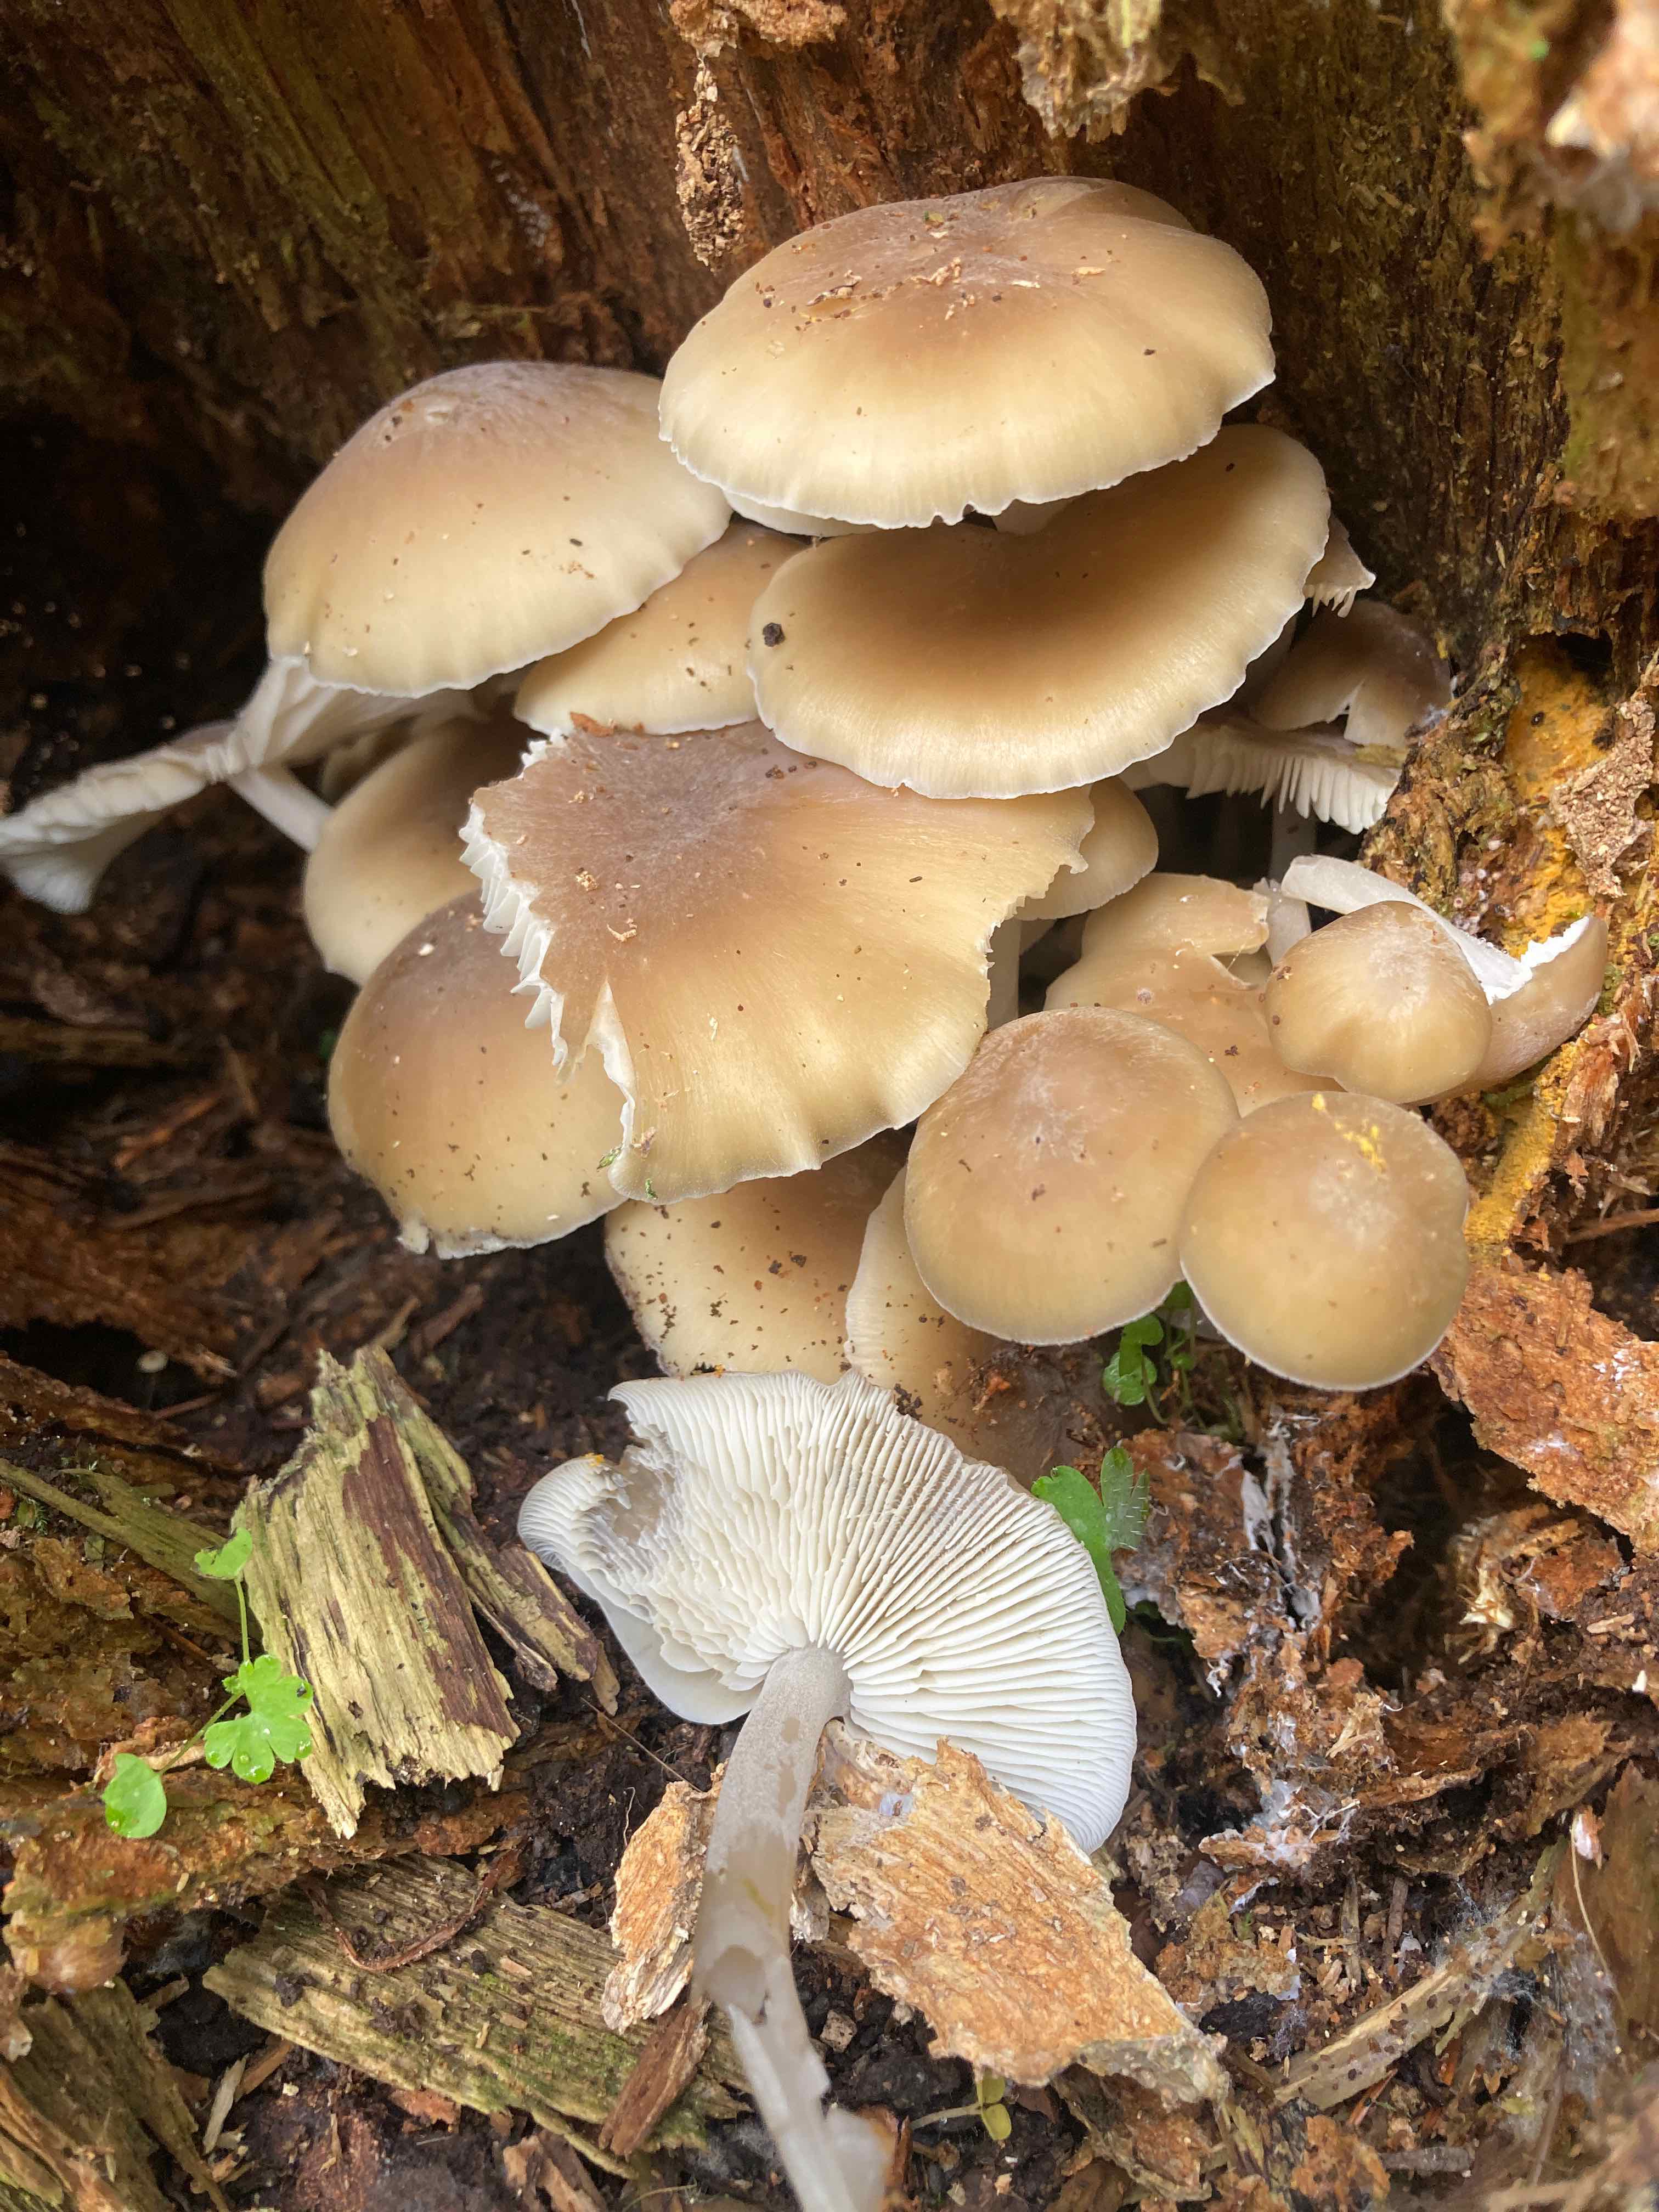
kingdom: Fungi
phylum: Basidiomycota
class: Agaricomycetes
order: Agaricales
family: Marasmiaceae
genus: Clitocybula
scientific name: Clitocybula lacerata
